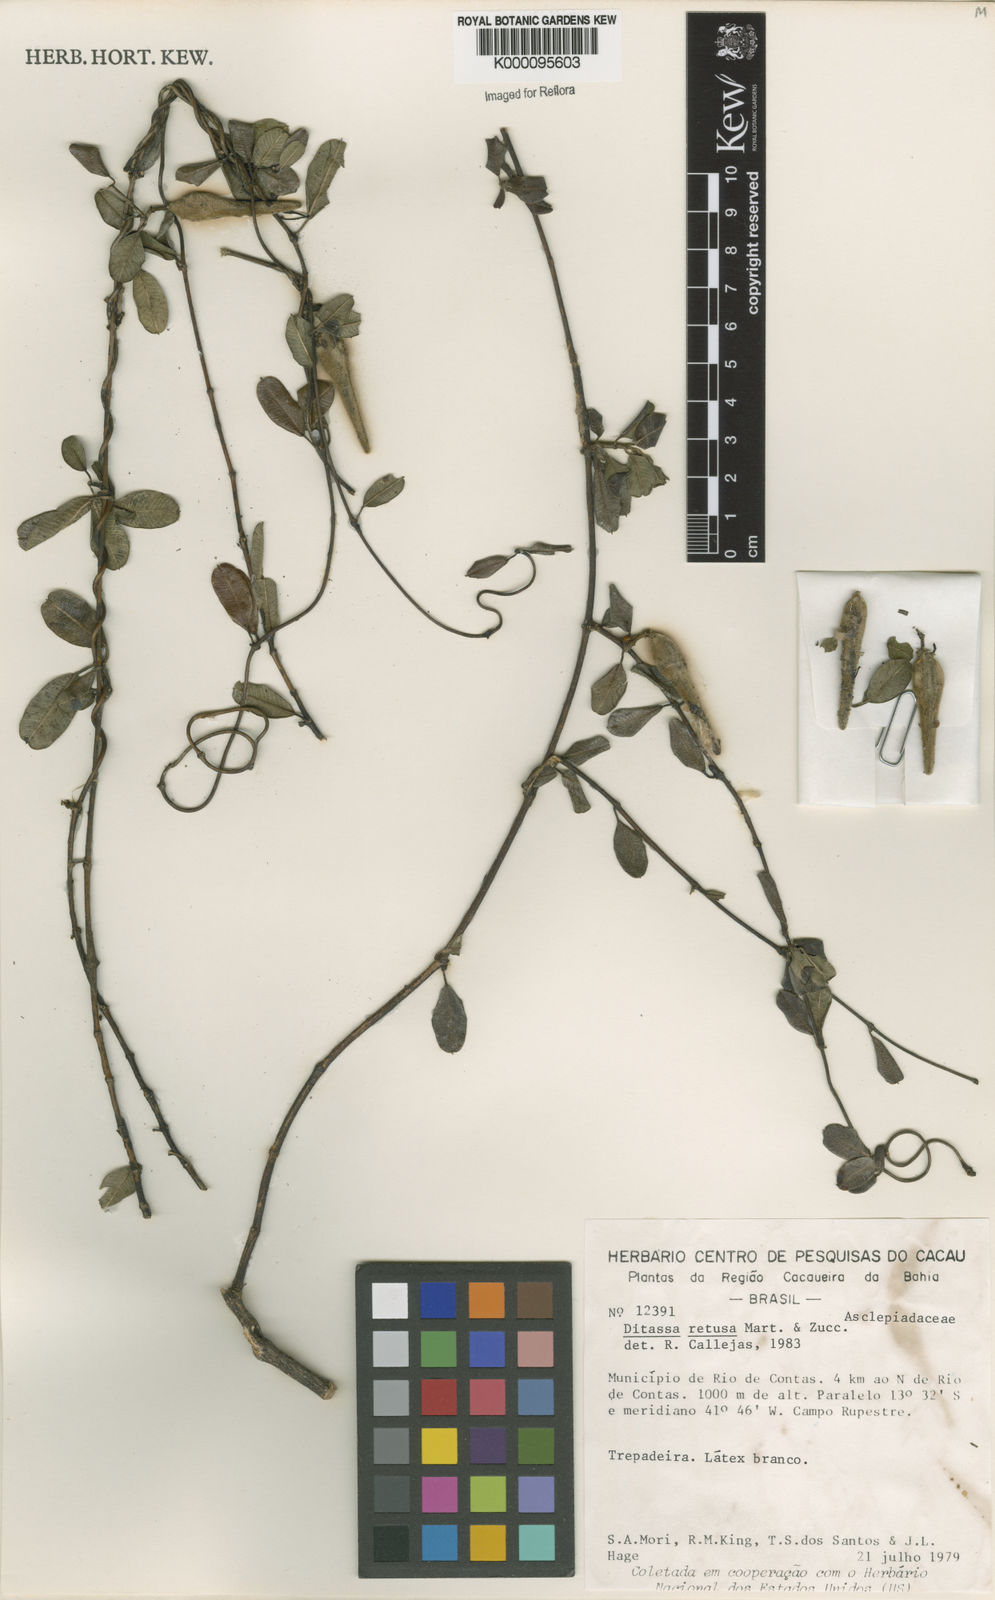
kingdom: Plantae
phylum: Tracheophyta
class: Magnoliopsida
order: Gentianales
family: Apocynaceae
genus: Ditassa
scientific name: Ditassa retusa
